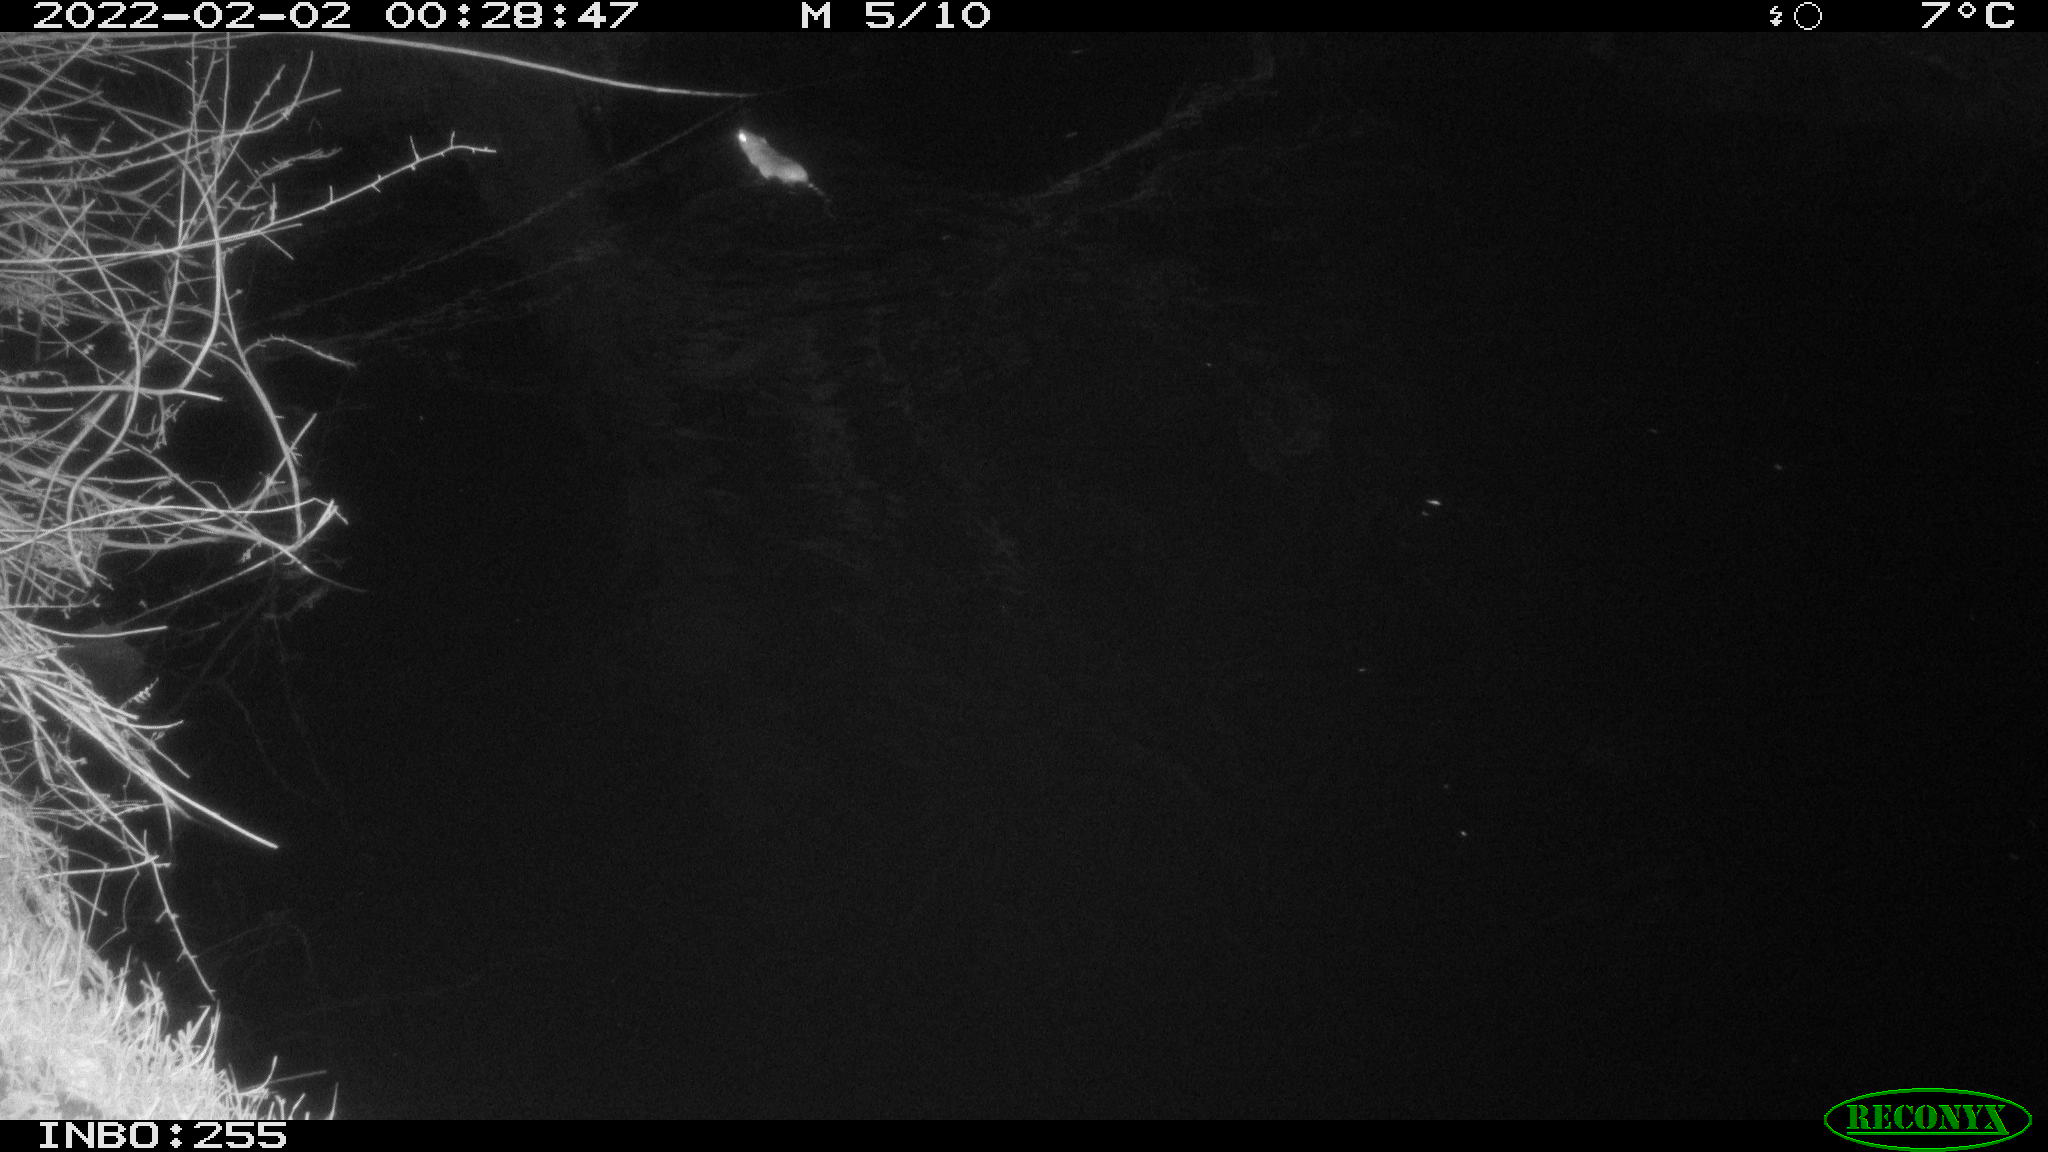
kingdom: Animalia
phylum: Chordata
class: Mammalia
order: Rodentia
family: Muridae
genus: Rattus
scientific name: Rattus norvegicus
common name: Brown rat
